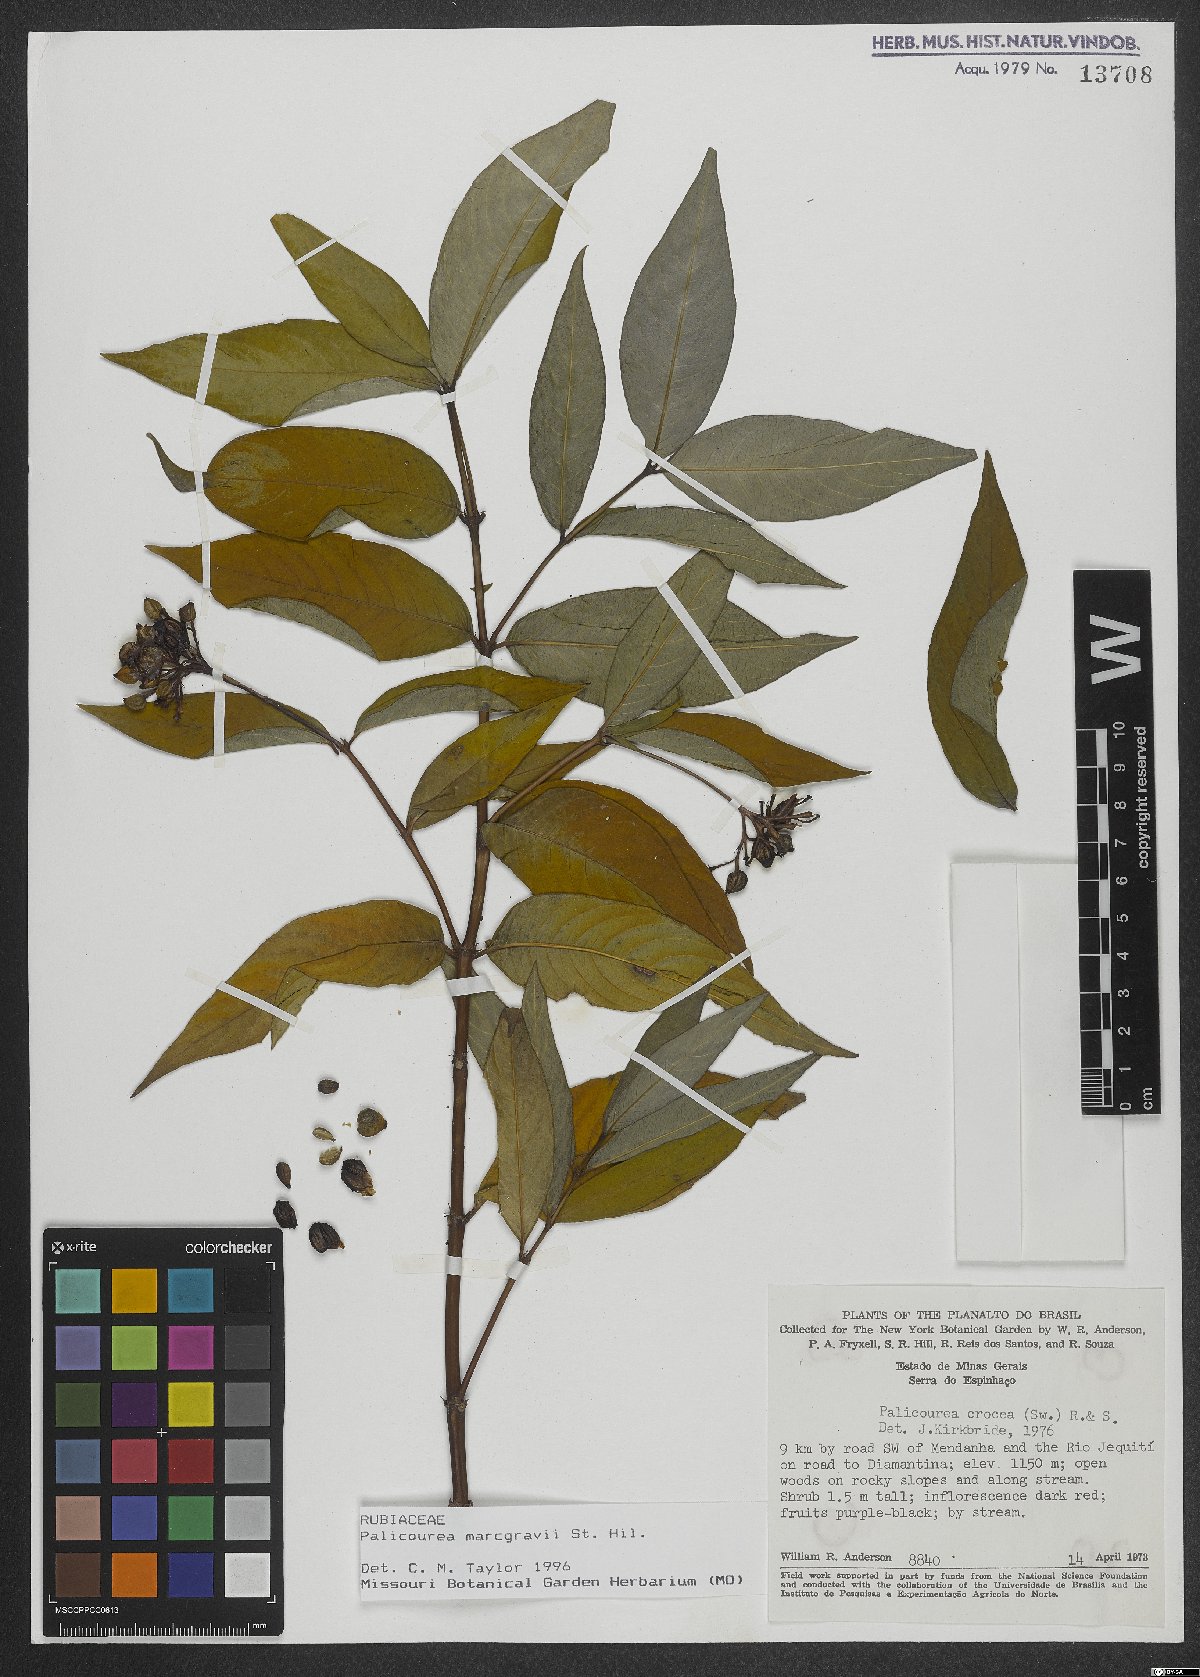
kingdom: Plantae
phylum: Tracheophyta
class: Magnoliopsida
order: Gentianales
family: Rubiaceae
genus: Palicourea
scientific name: Palicourea marcgravii
